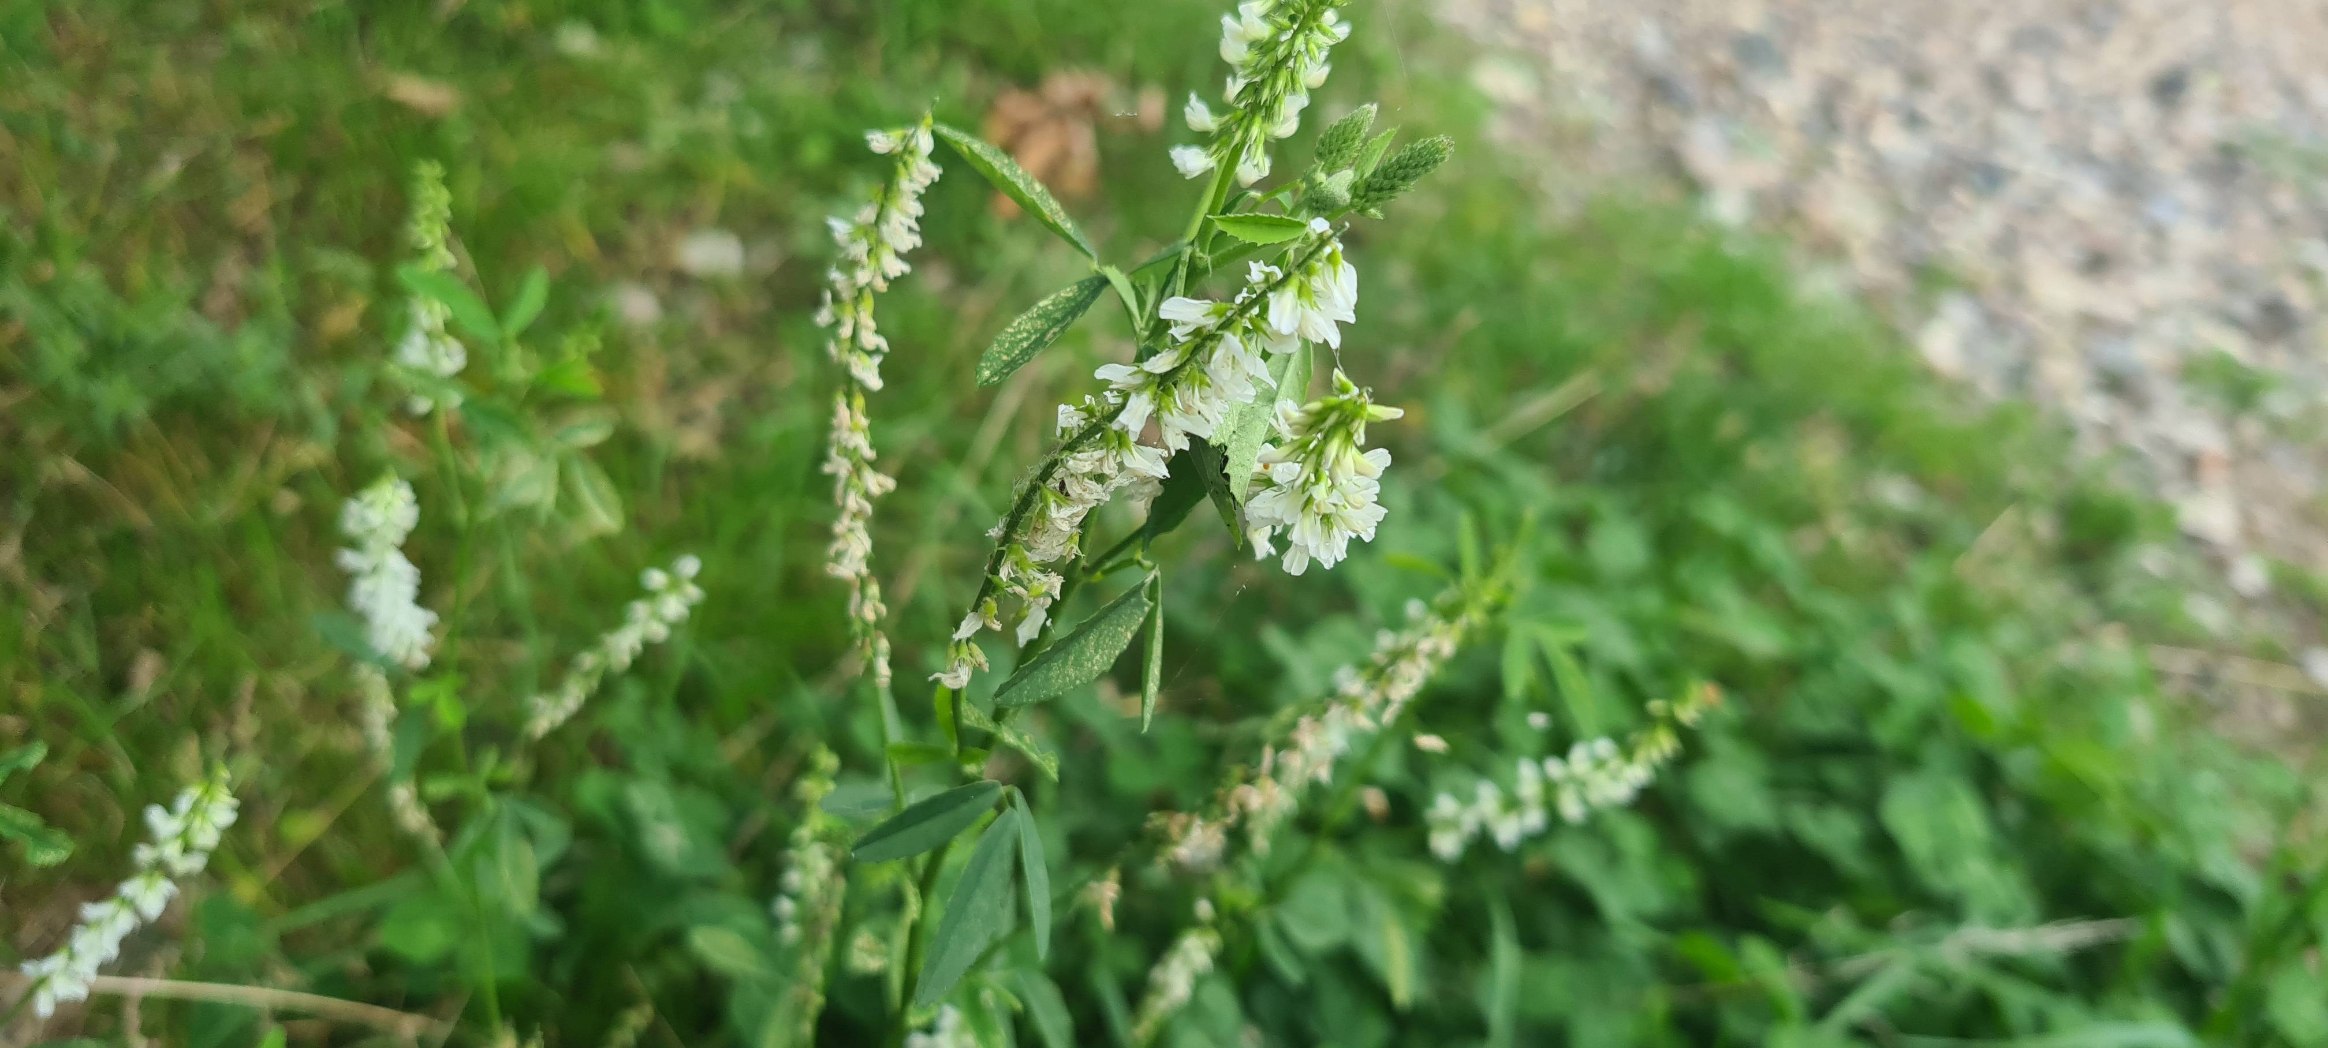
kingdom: Plantae
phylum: Tracheophyta
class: Magnoliopsida
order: Fabales
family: Fabaceae
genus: Melilotus
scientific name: Melilotus albus
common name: Hvid stenkløver
